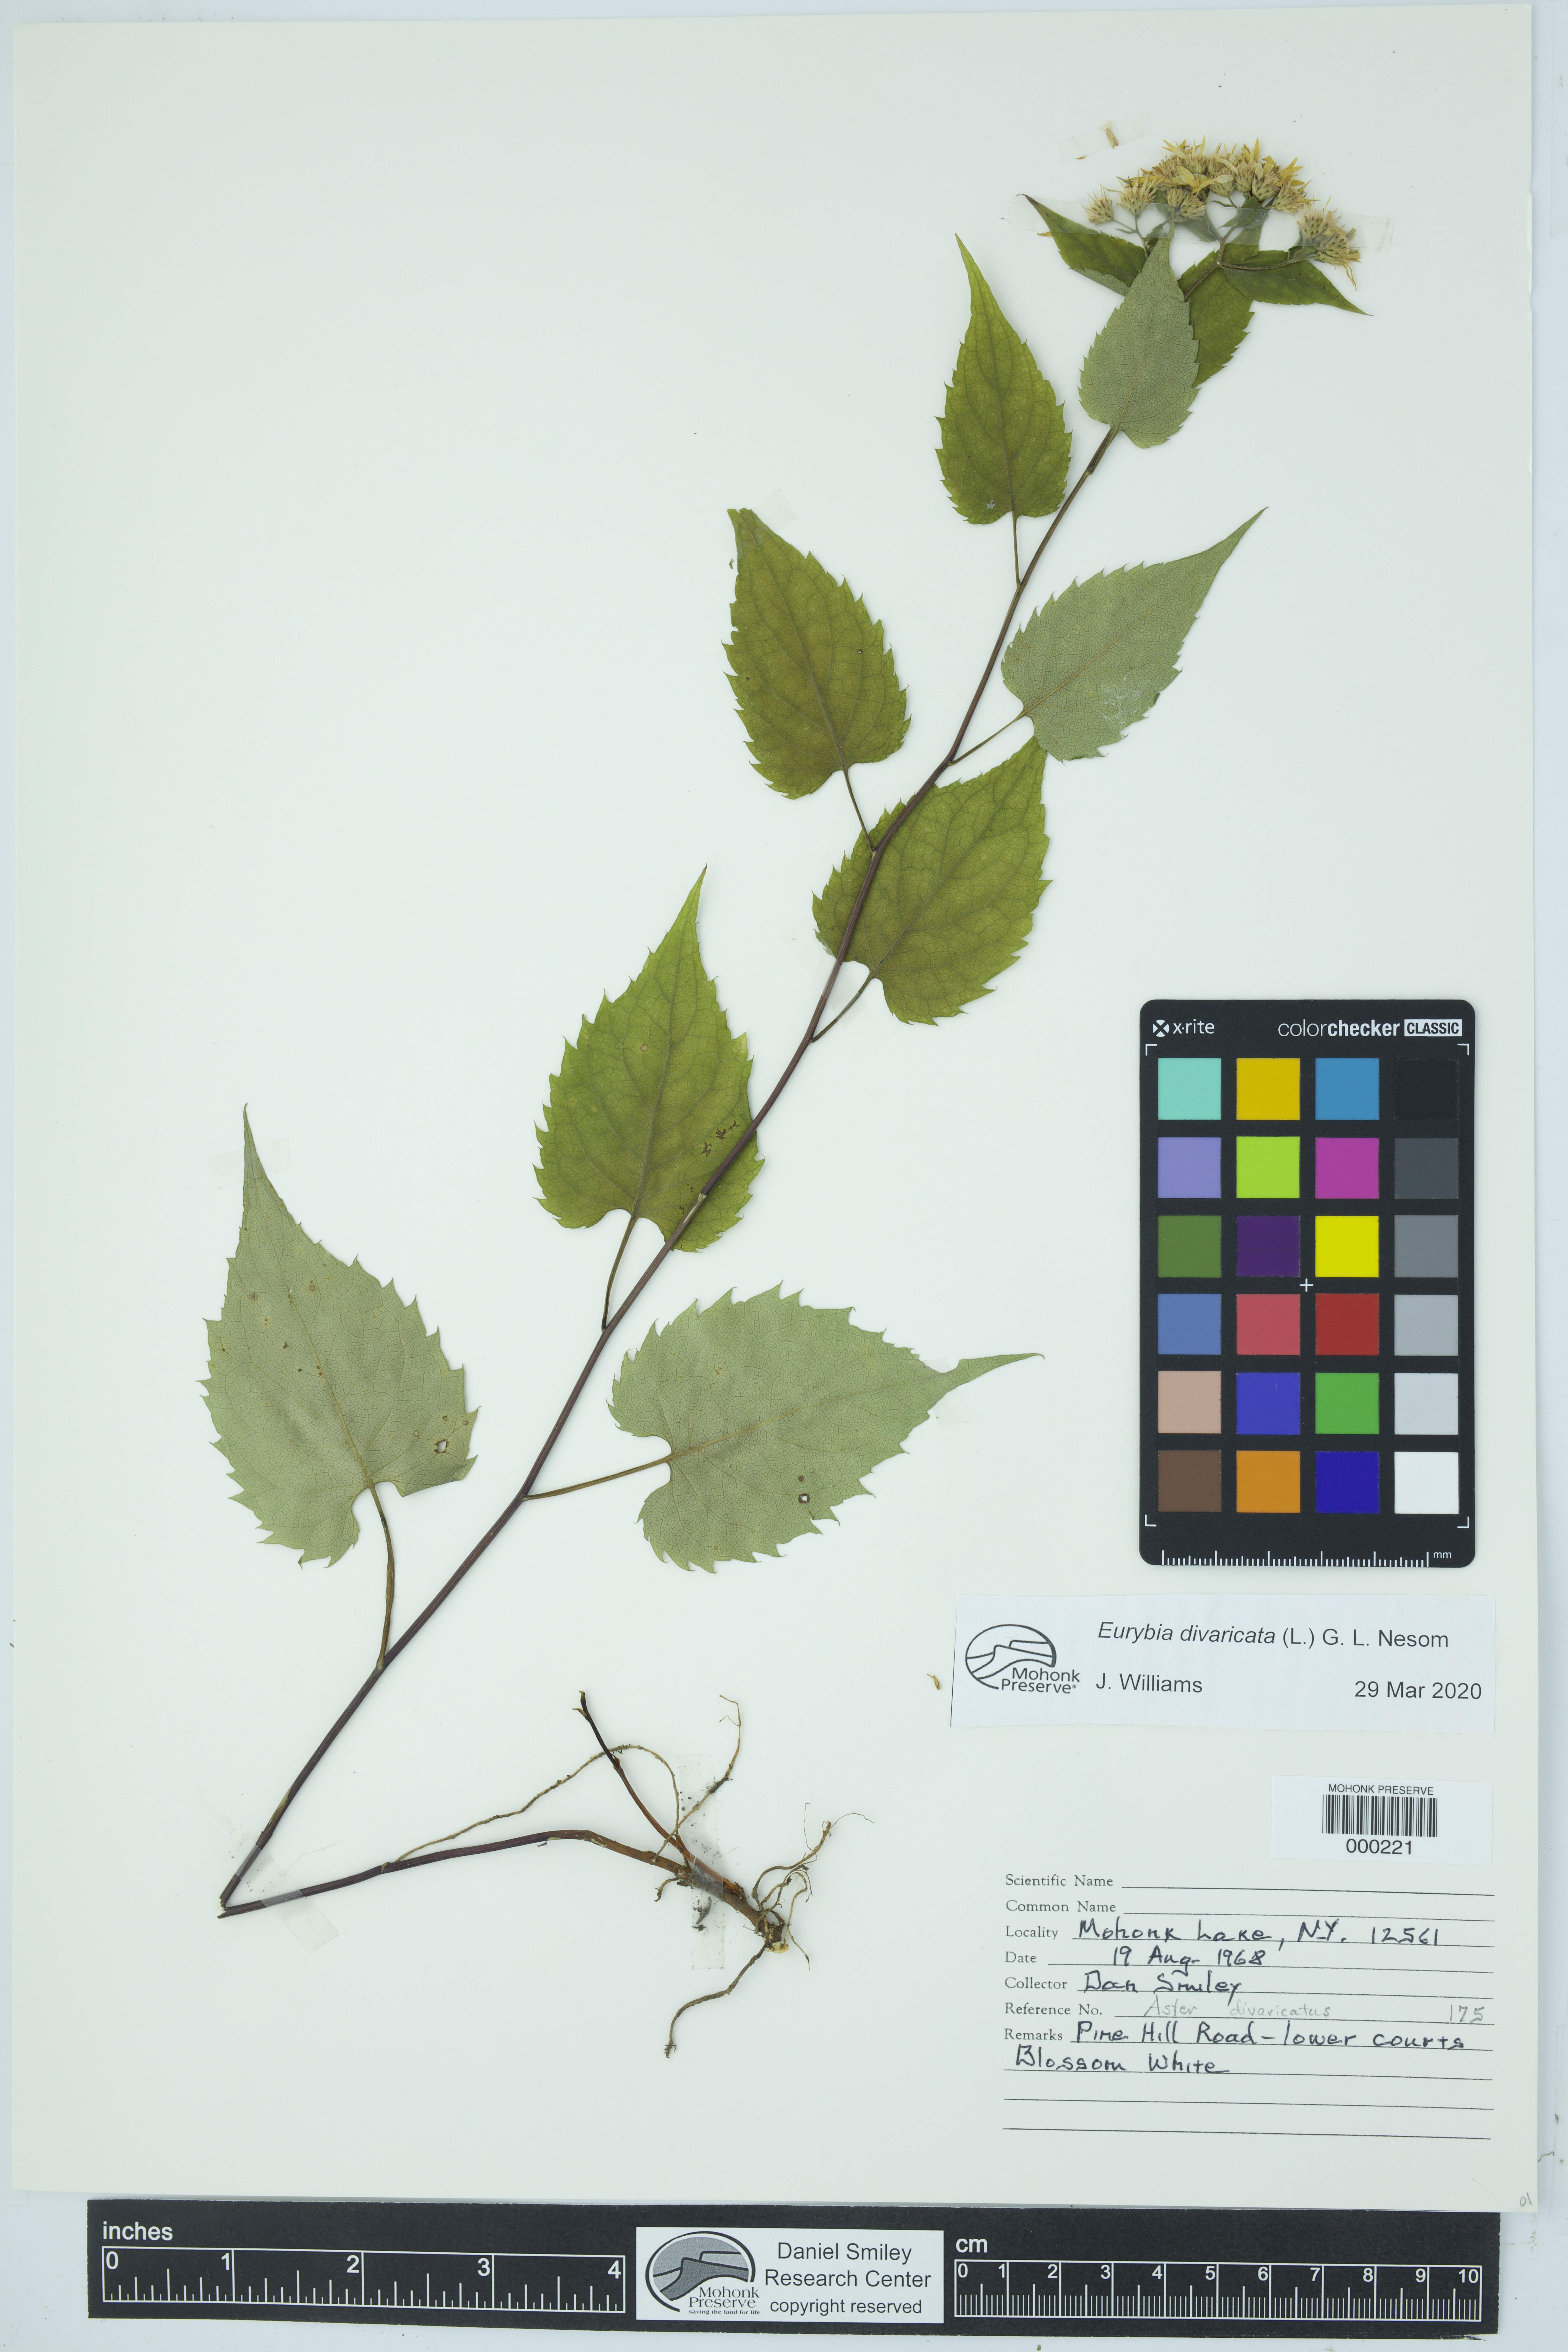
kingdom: Plantae
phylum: Tracheophyta
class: Magnoliopsida
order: Asterales
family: Asteraceae
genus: Eurybia
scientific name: Eurybia divaricata
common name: White wood aster
